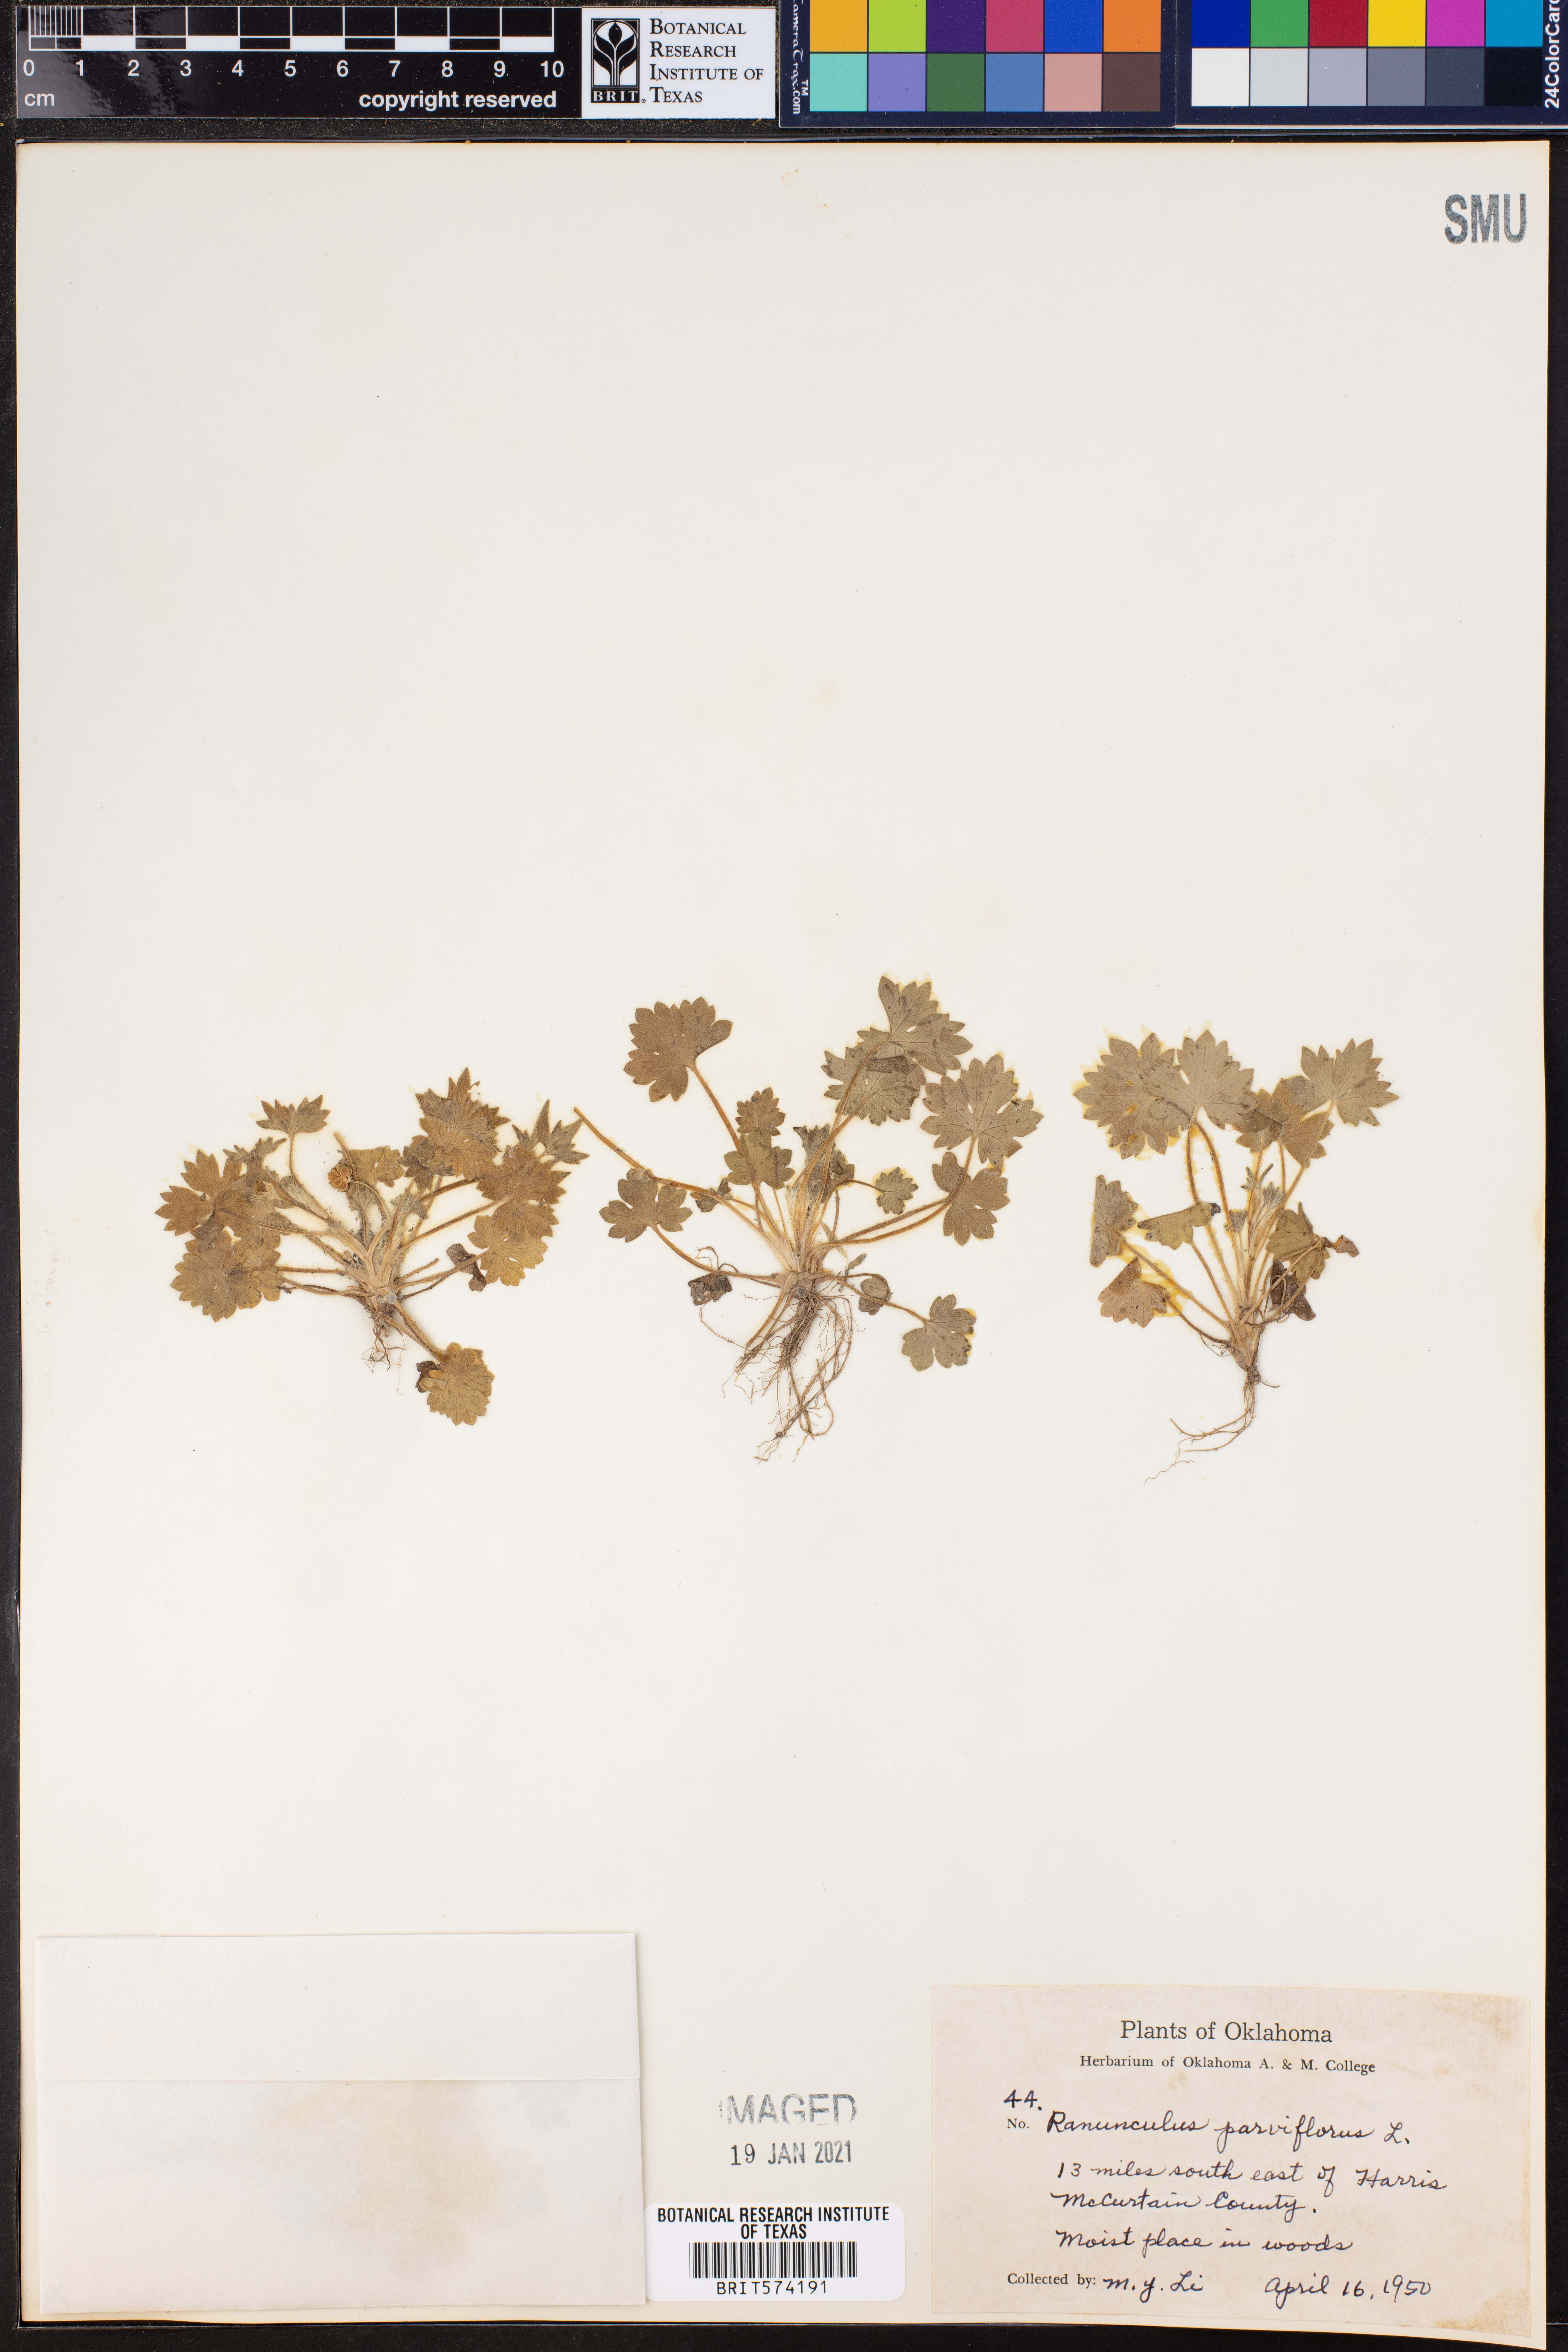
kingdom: Plantae
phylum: Tracheophyta
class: Magnoliopsida
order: Ranunculales
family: Ranunculaceae
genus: Ranunculus
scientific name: Ranunculus parviflorus
